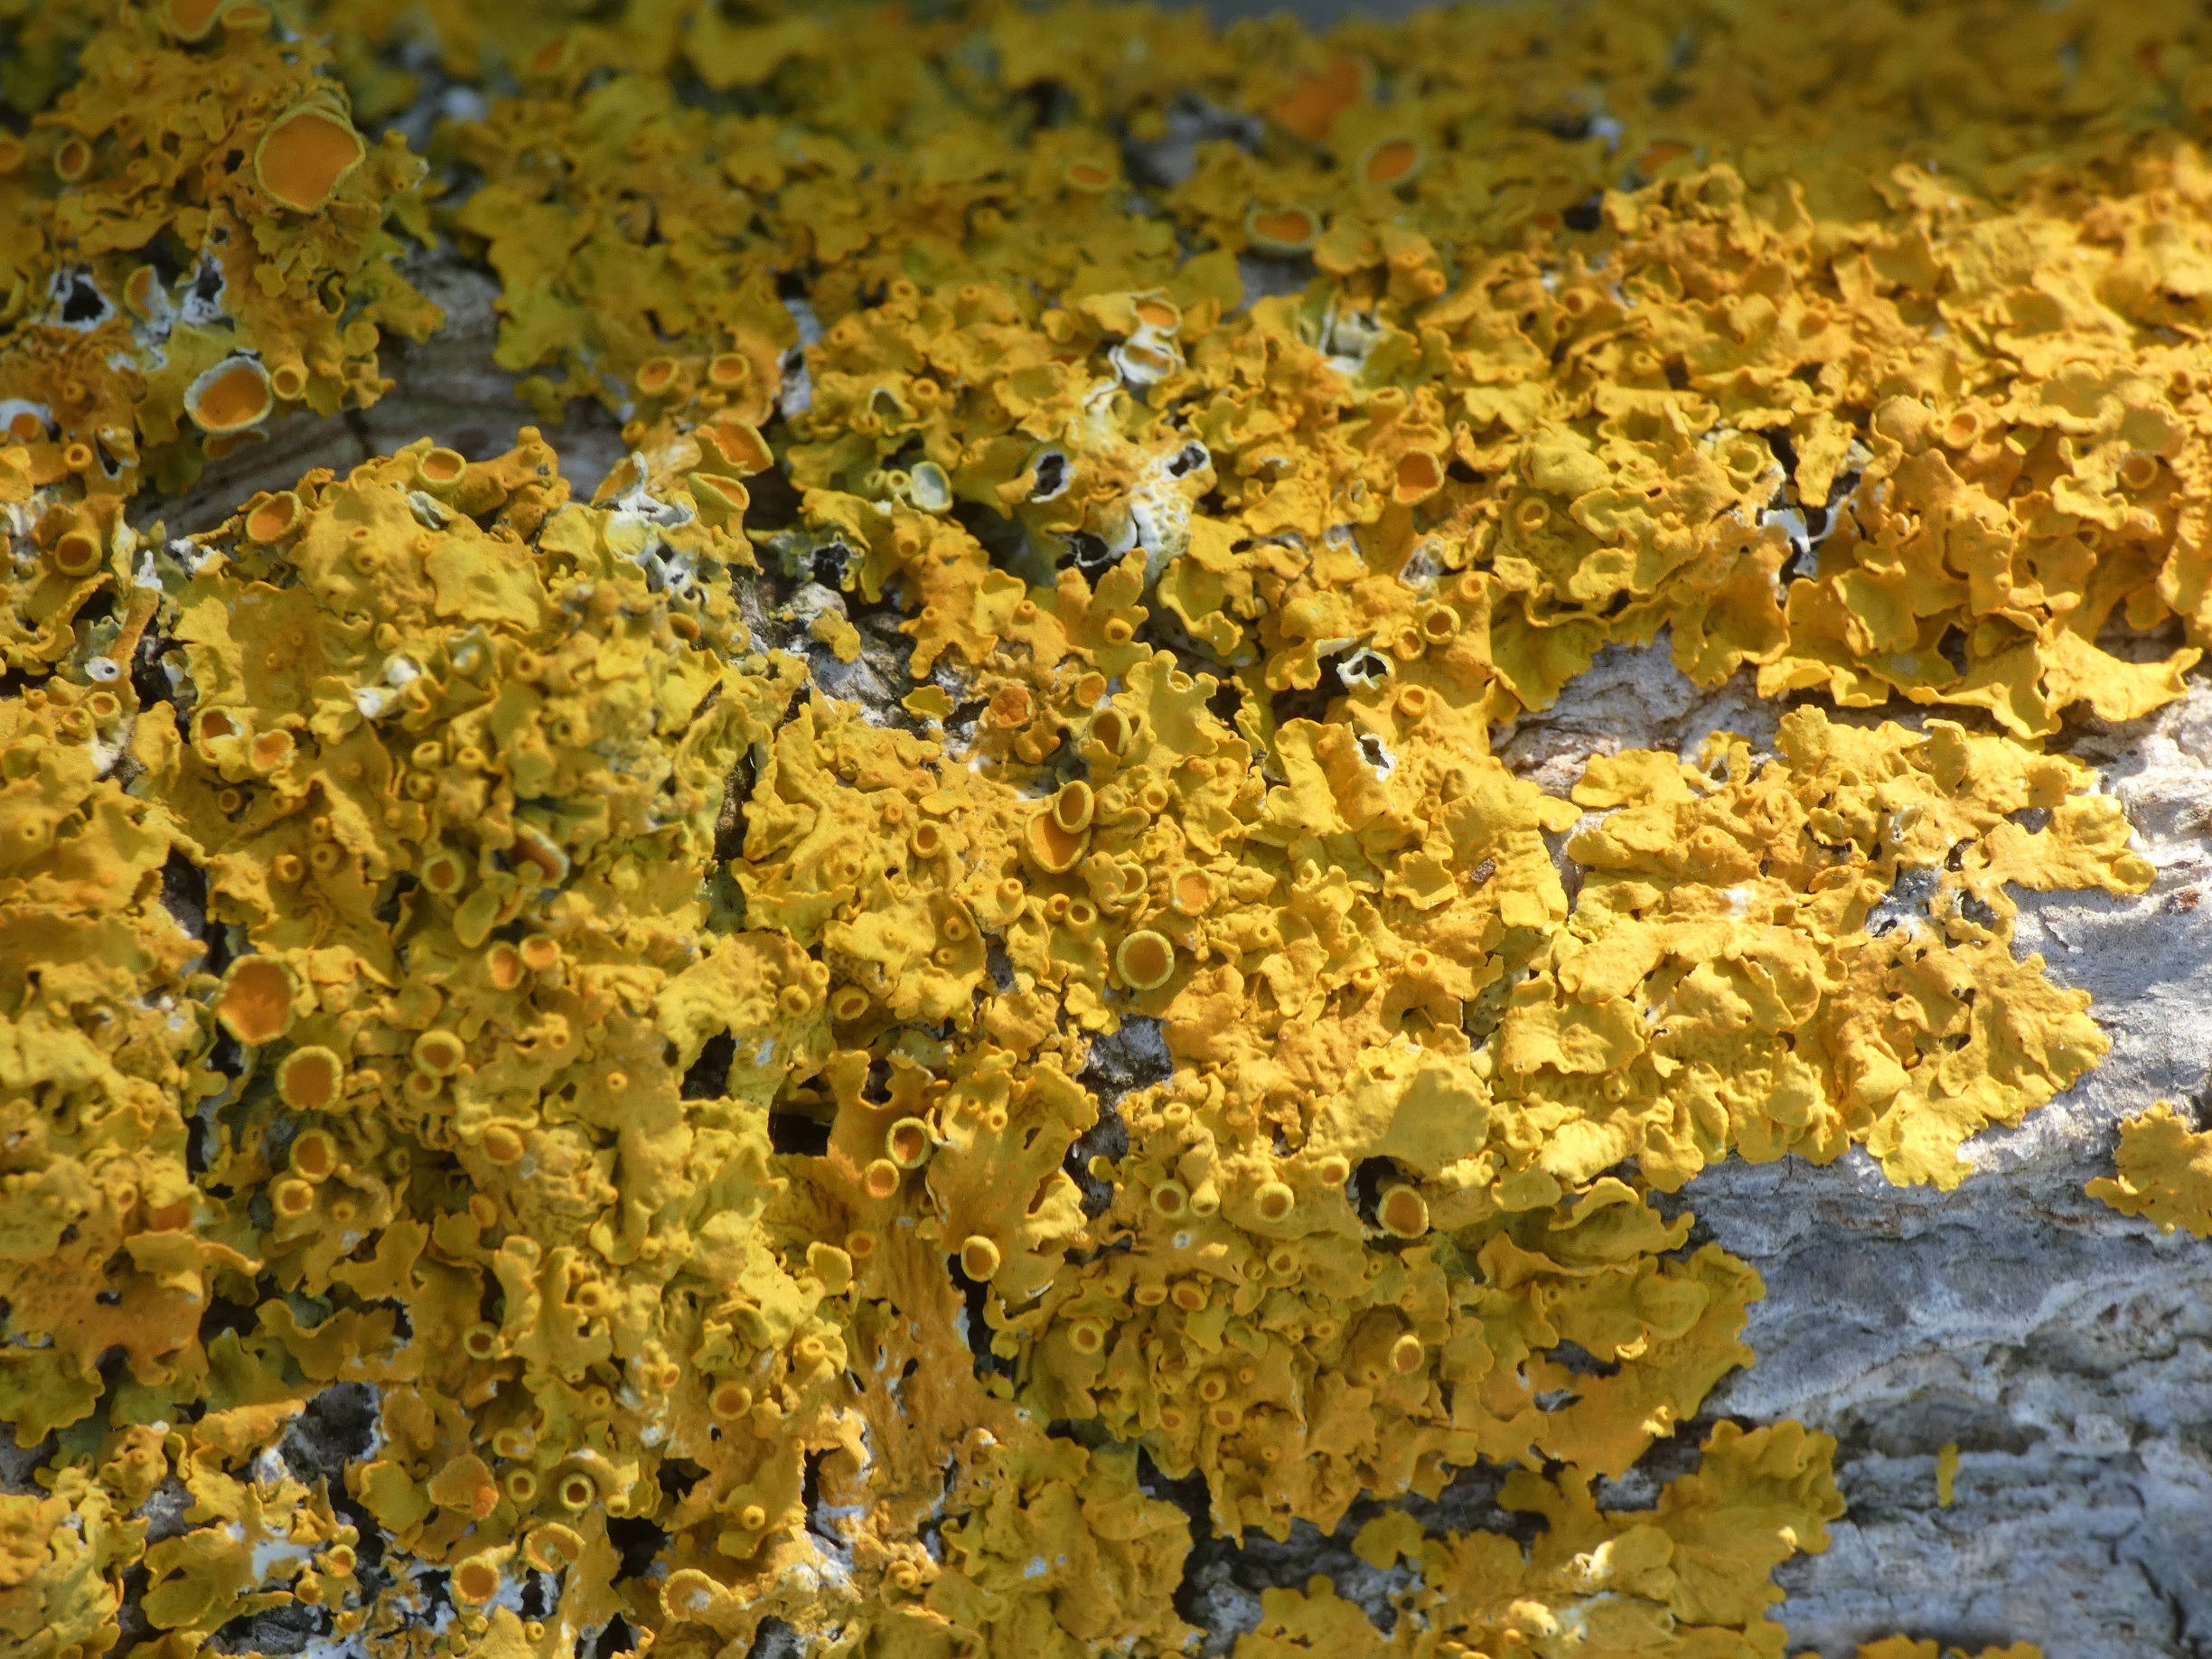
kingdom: Fungi
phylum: Ascomycota
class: Lecanoromycetes
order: Teloschistales
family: Teloschistaceae
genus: Xanthoria
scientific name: Xanthoria parietina
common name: Almindelig væggelav
